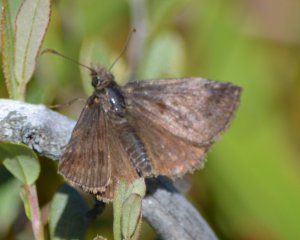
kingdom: Animalia
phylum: Arthropoda
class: Insecta
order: Lepidoptera
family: Hesperiidae
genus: Erynnis
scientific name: Erynnis icelus
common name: Dreamy Duskywing
